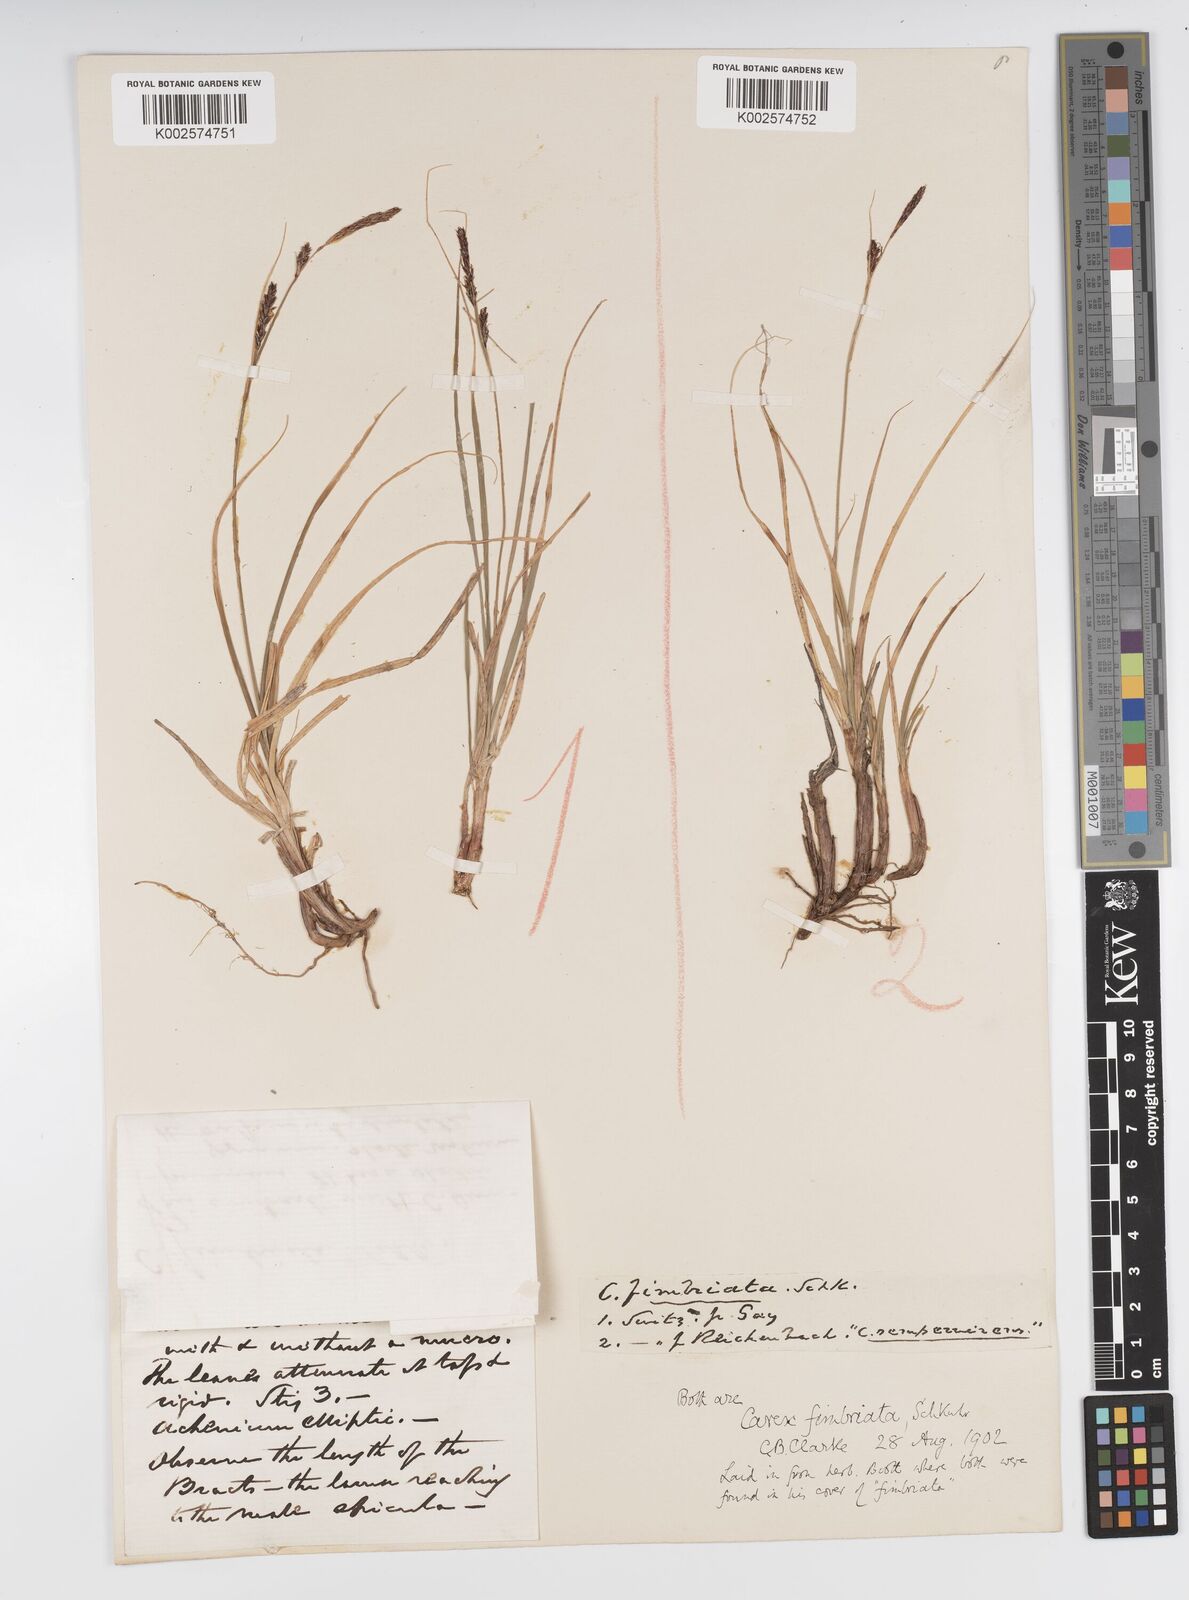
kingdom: Plantae
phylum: Tracheophyta
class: Liliopsida
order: Poales
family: Cyperaceae
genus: Carex
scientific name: Carex fimbriata
